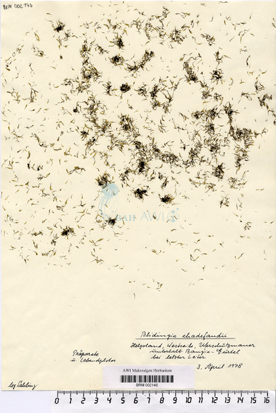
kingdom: Plantae
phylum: Chlorophyta
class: Ulvophyceae
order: Ulvales
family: Kornmanniaceae
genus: Blidingia
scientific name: Blidingia chadefaudii
